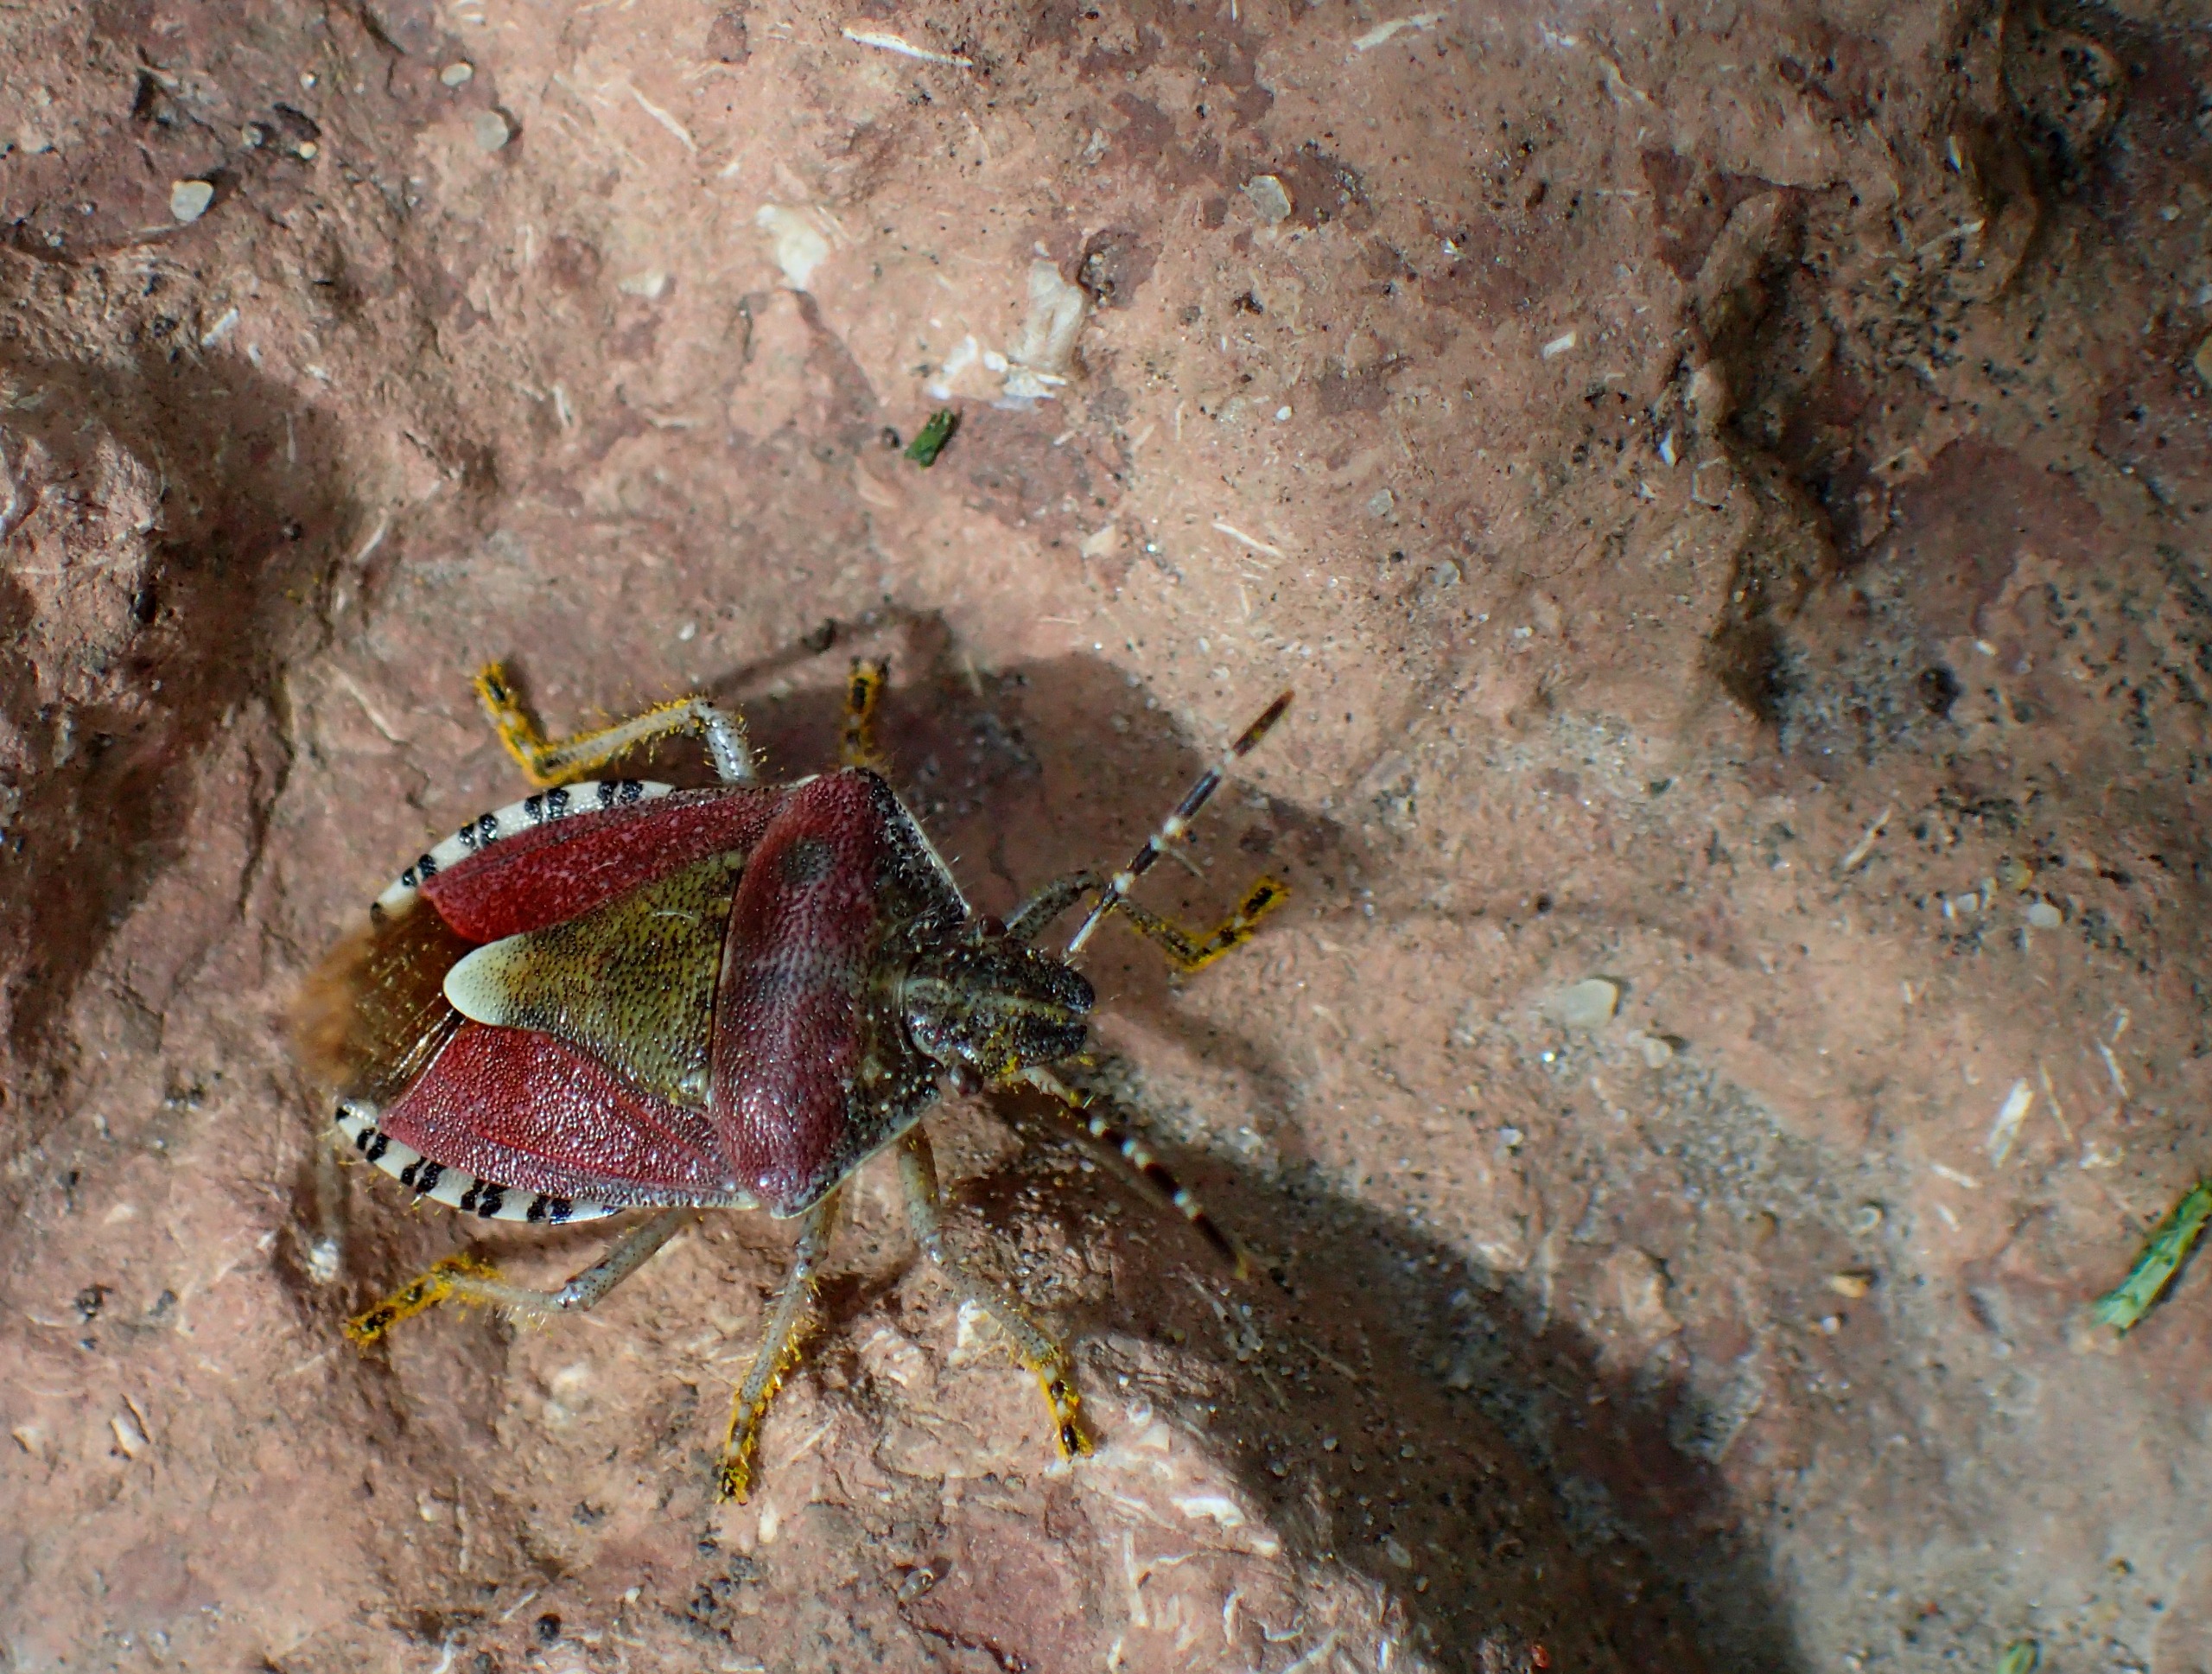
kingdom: Animalia
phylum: Arthropoda
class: Insecta
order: Hemiptera
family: Pentatomidae
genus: Dolycoris
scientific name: Dolycoris baccarum
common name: Almindelig bærtæge
